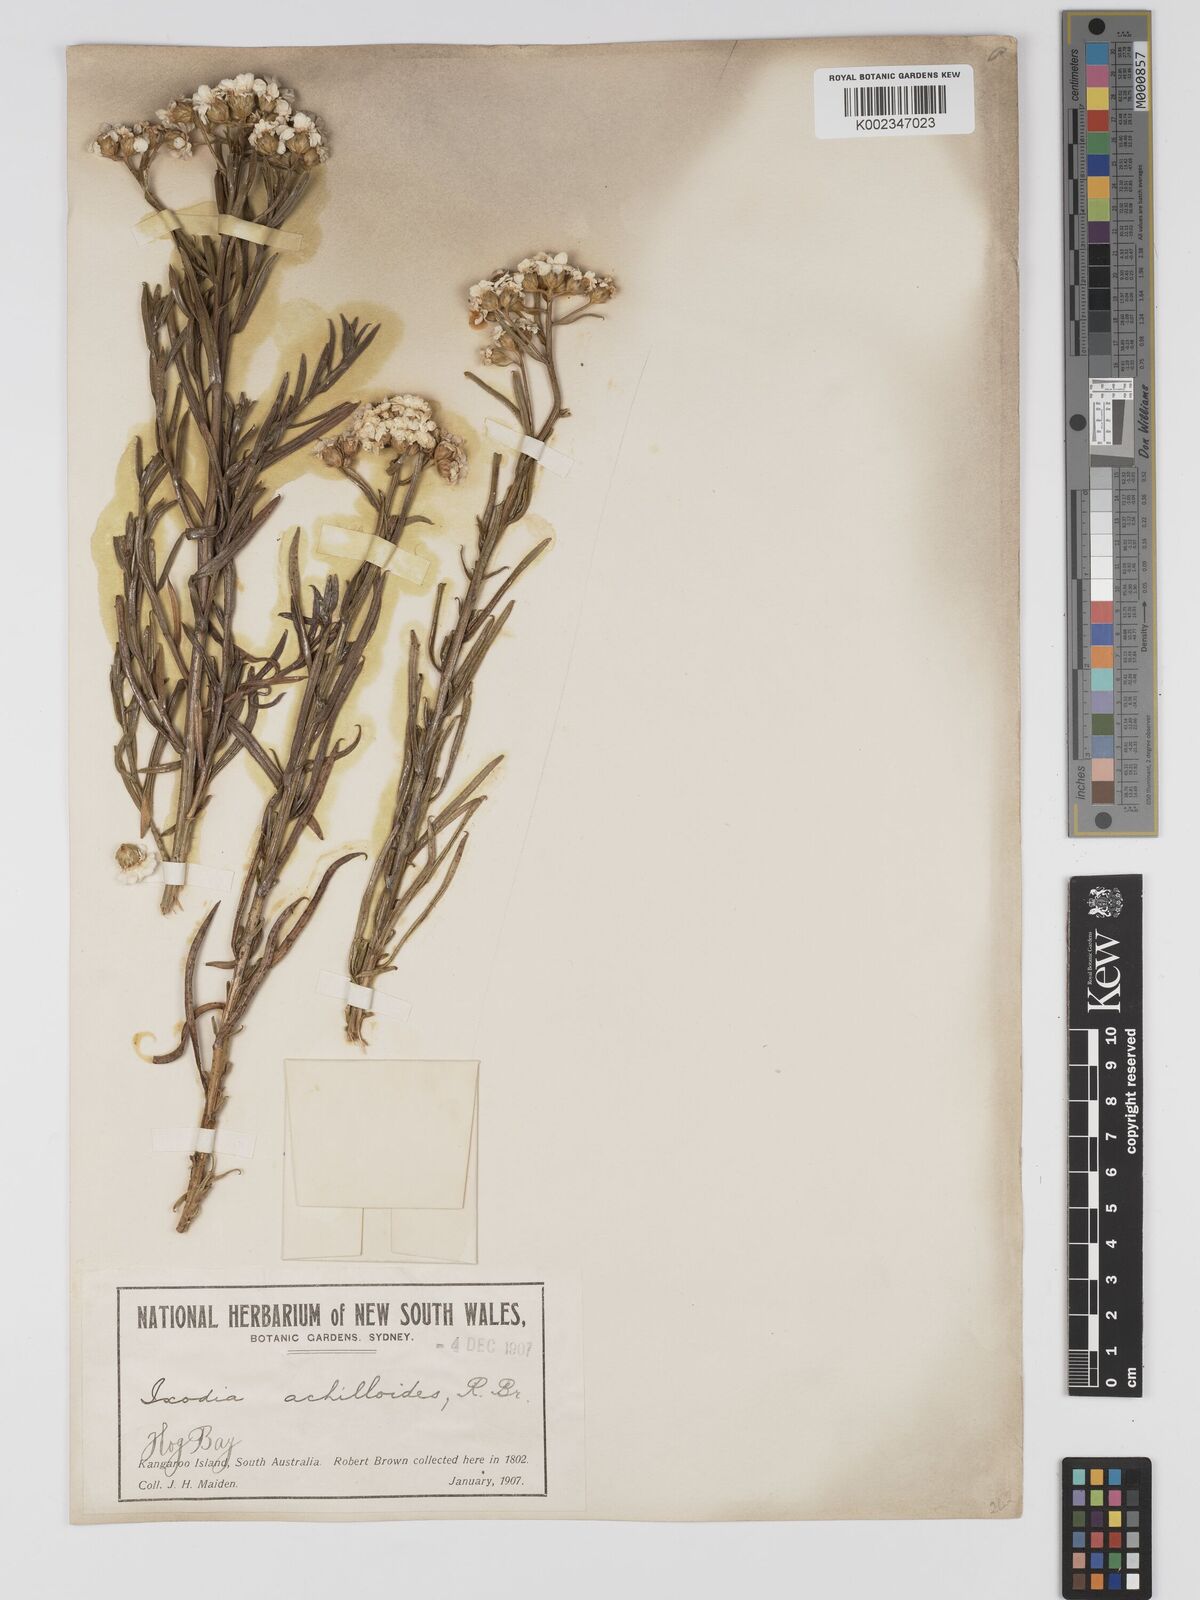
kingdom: Plantae
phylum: Tracheophyta
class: Magnoliopsida
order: Asterales
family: Asteraceae
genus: Ixodia
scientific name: Ixodia achilleoides
